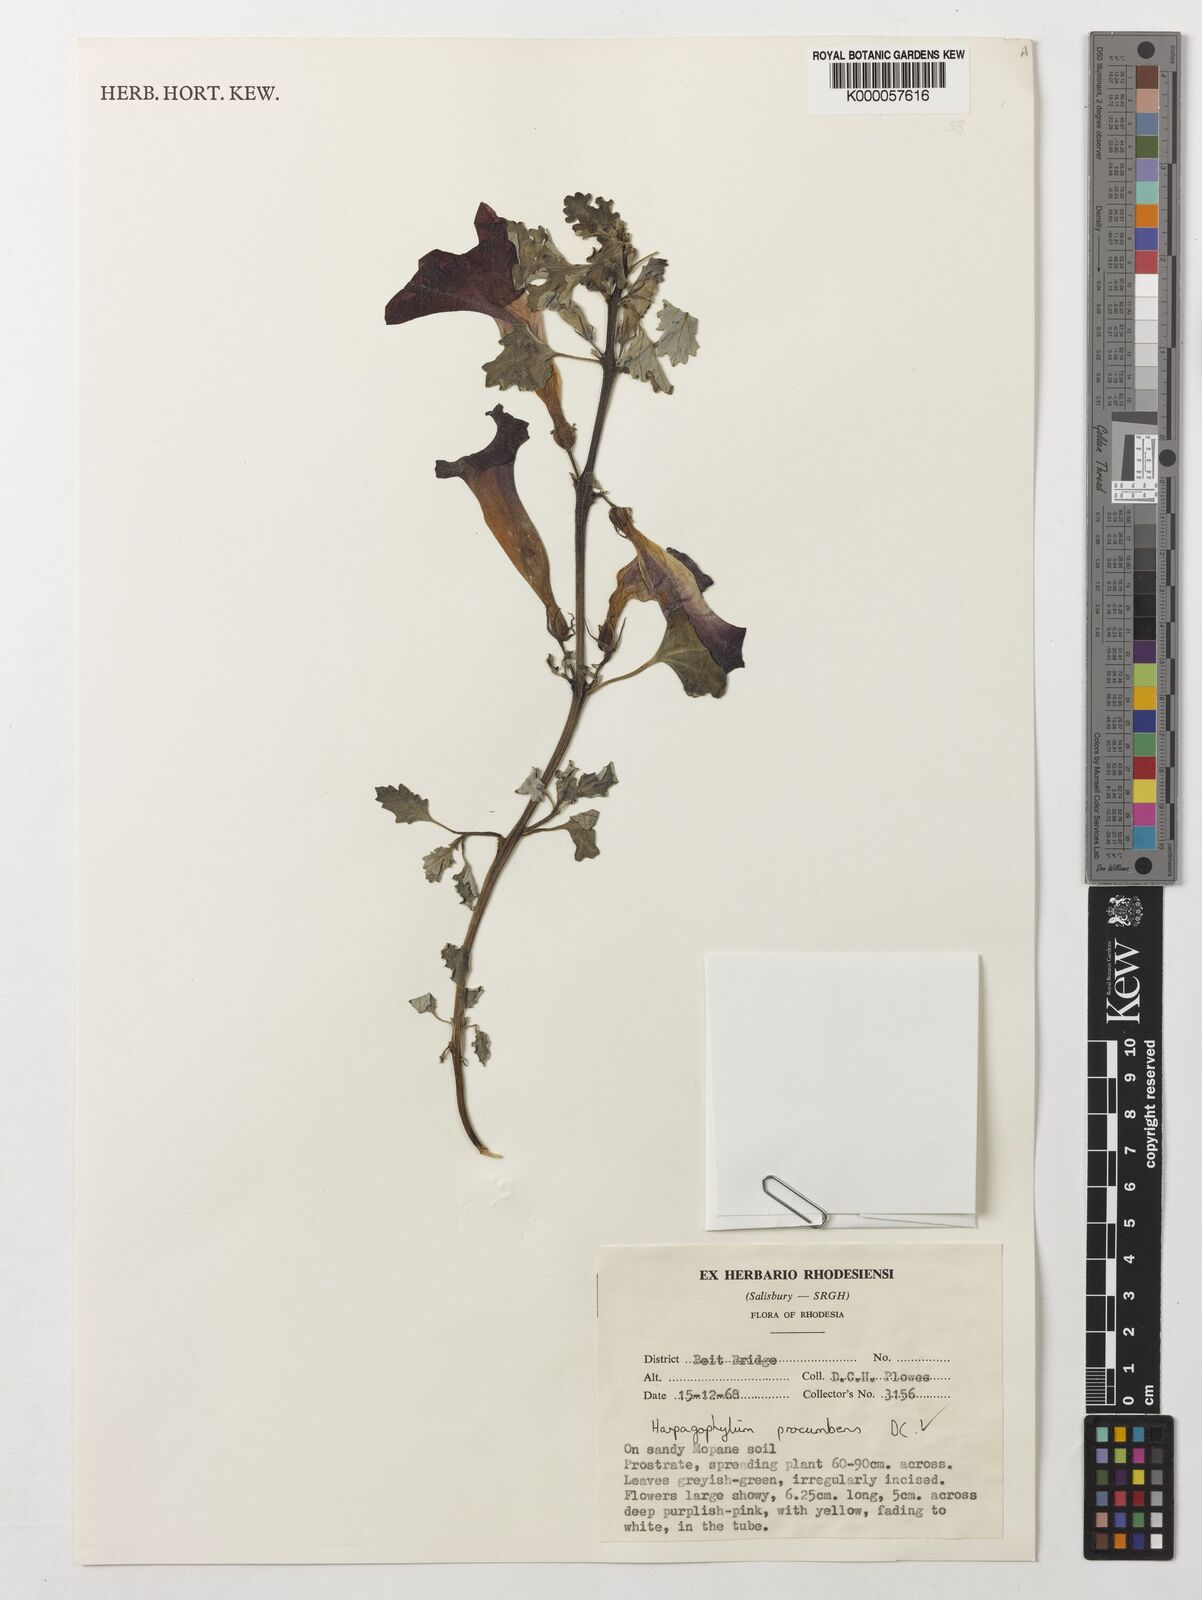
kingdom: Plantae
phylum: Tracheophyta
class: Magnoliopsida
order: Lamiales
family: Pedaliaceae
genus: Harpagophytum
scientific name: Harpagophytum procumbens
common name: Grappleplant
